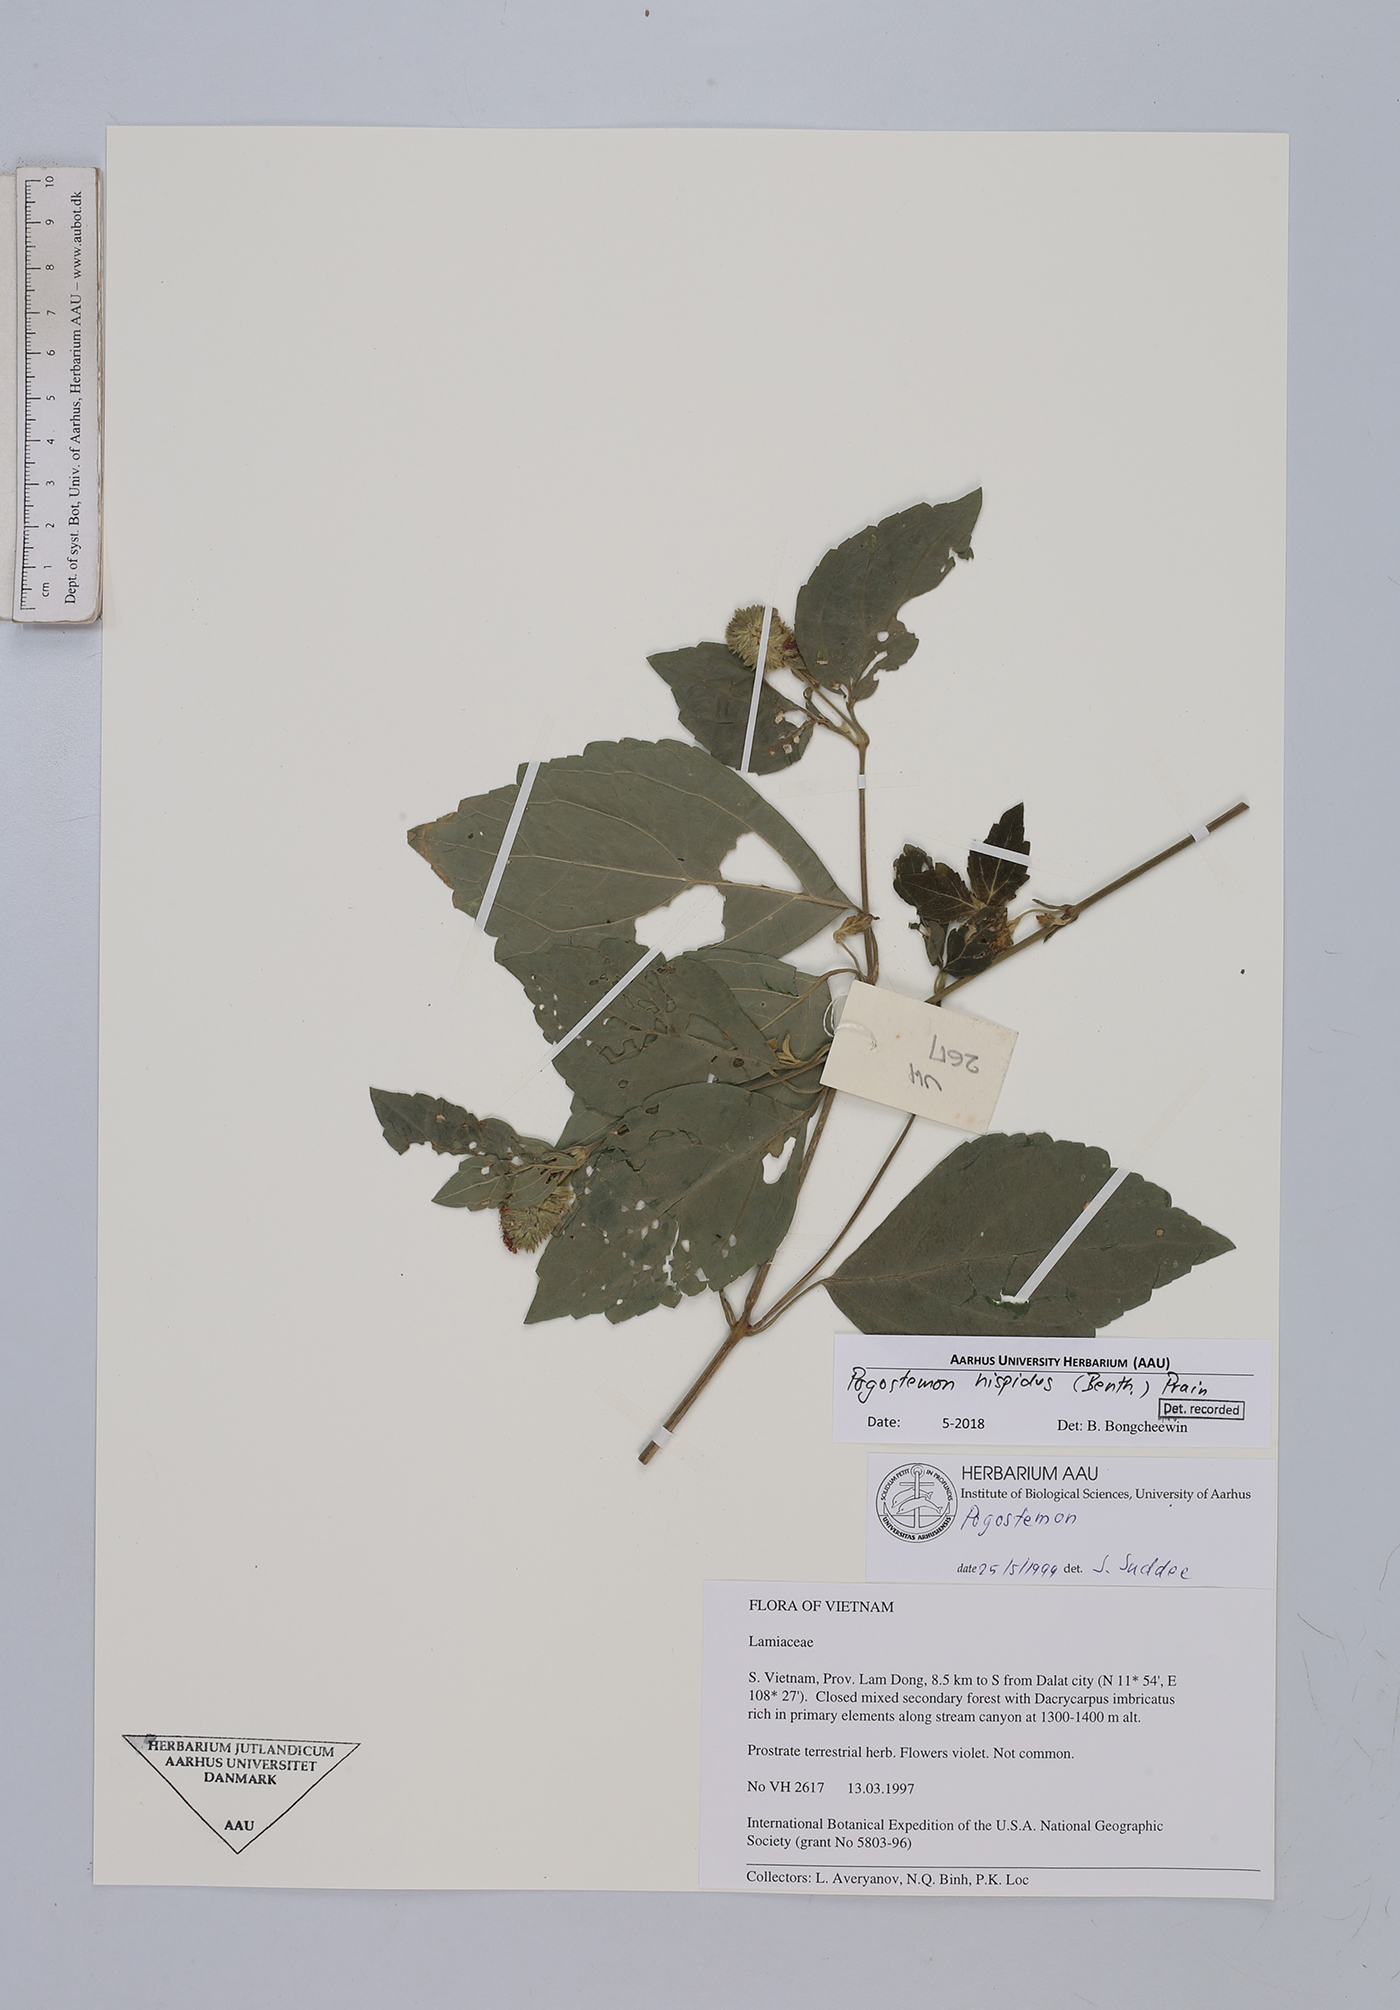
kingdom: Plantae
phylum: Tracheophyta
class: Magnoliopsida
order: Lamiales
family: Lamiaceae
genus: Pogostemon
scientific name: Pogostemon hispidus
